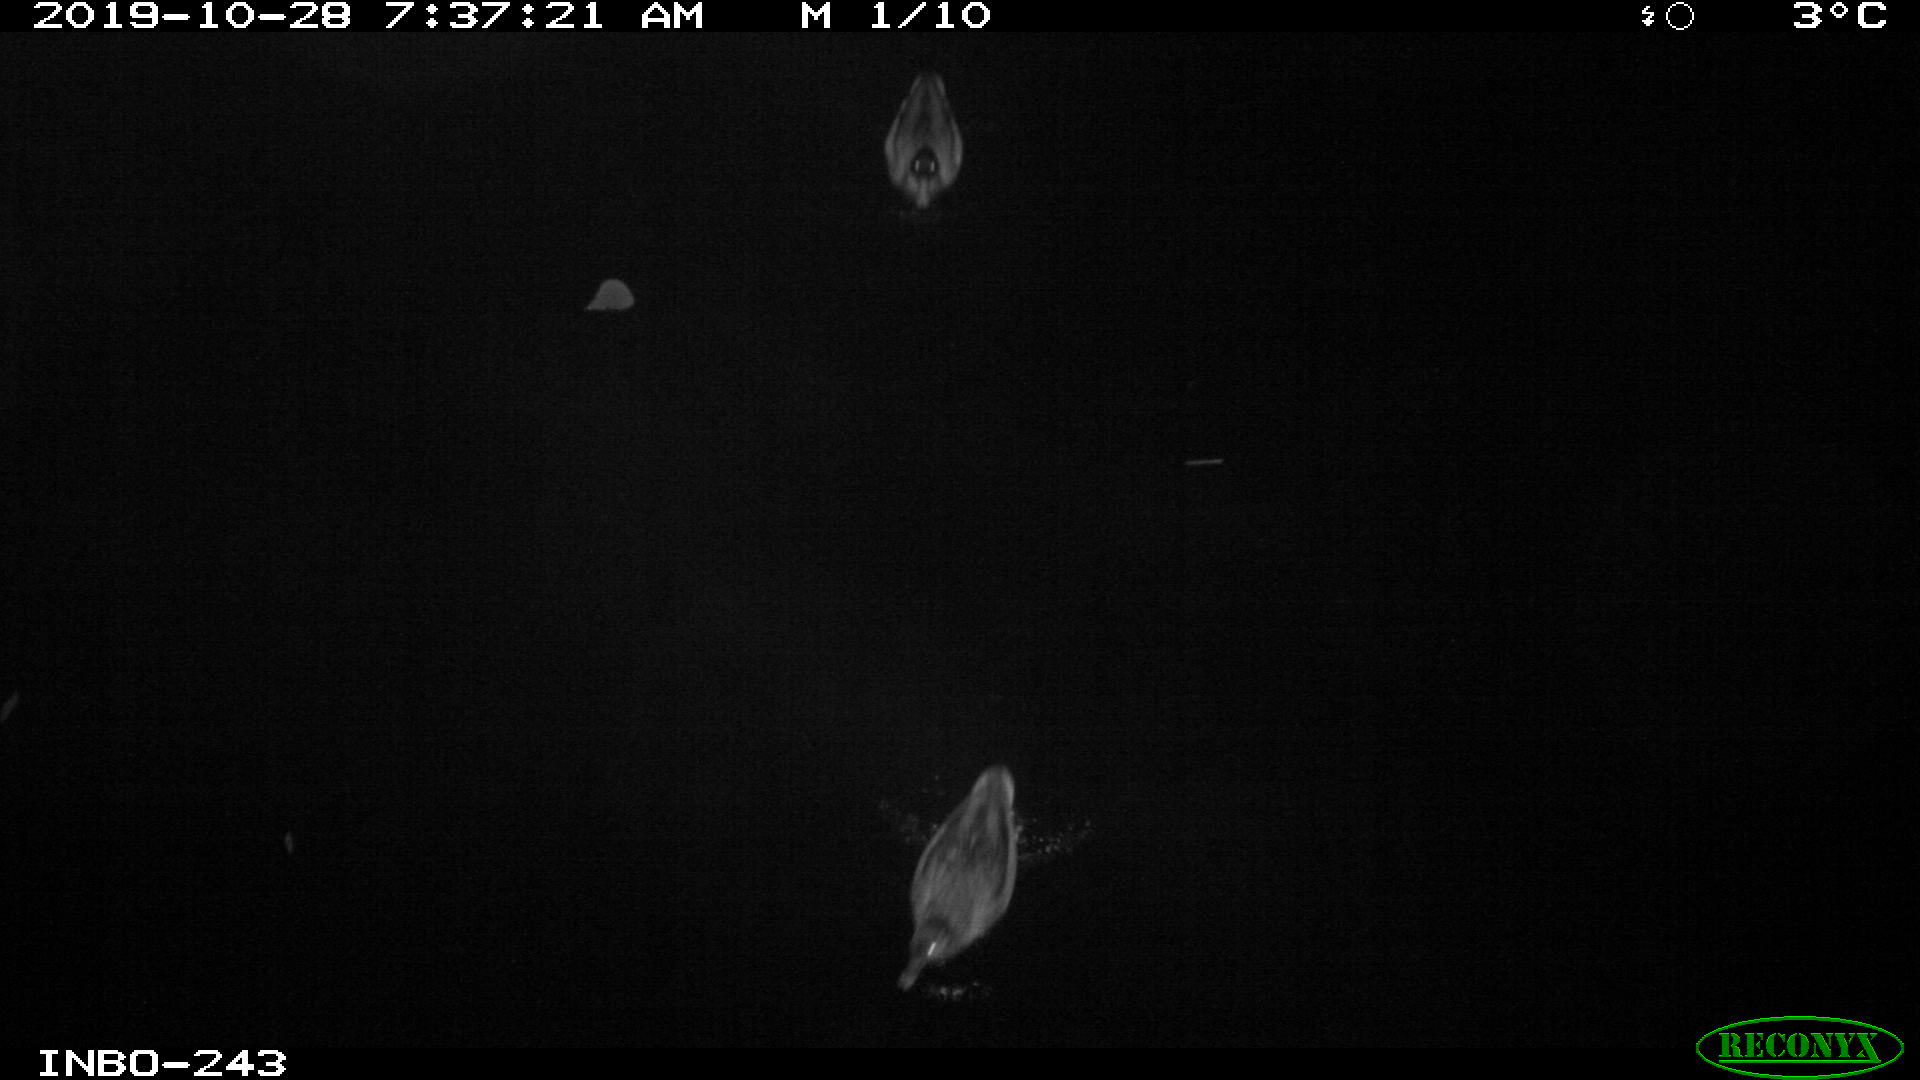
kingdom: Animalia
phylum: Chordata
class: Aves
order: Anseriformes
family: Anatidae
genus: Anas
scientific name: Anas platyrhynchos
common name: Mallard
